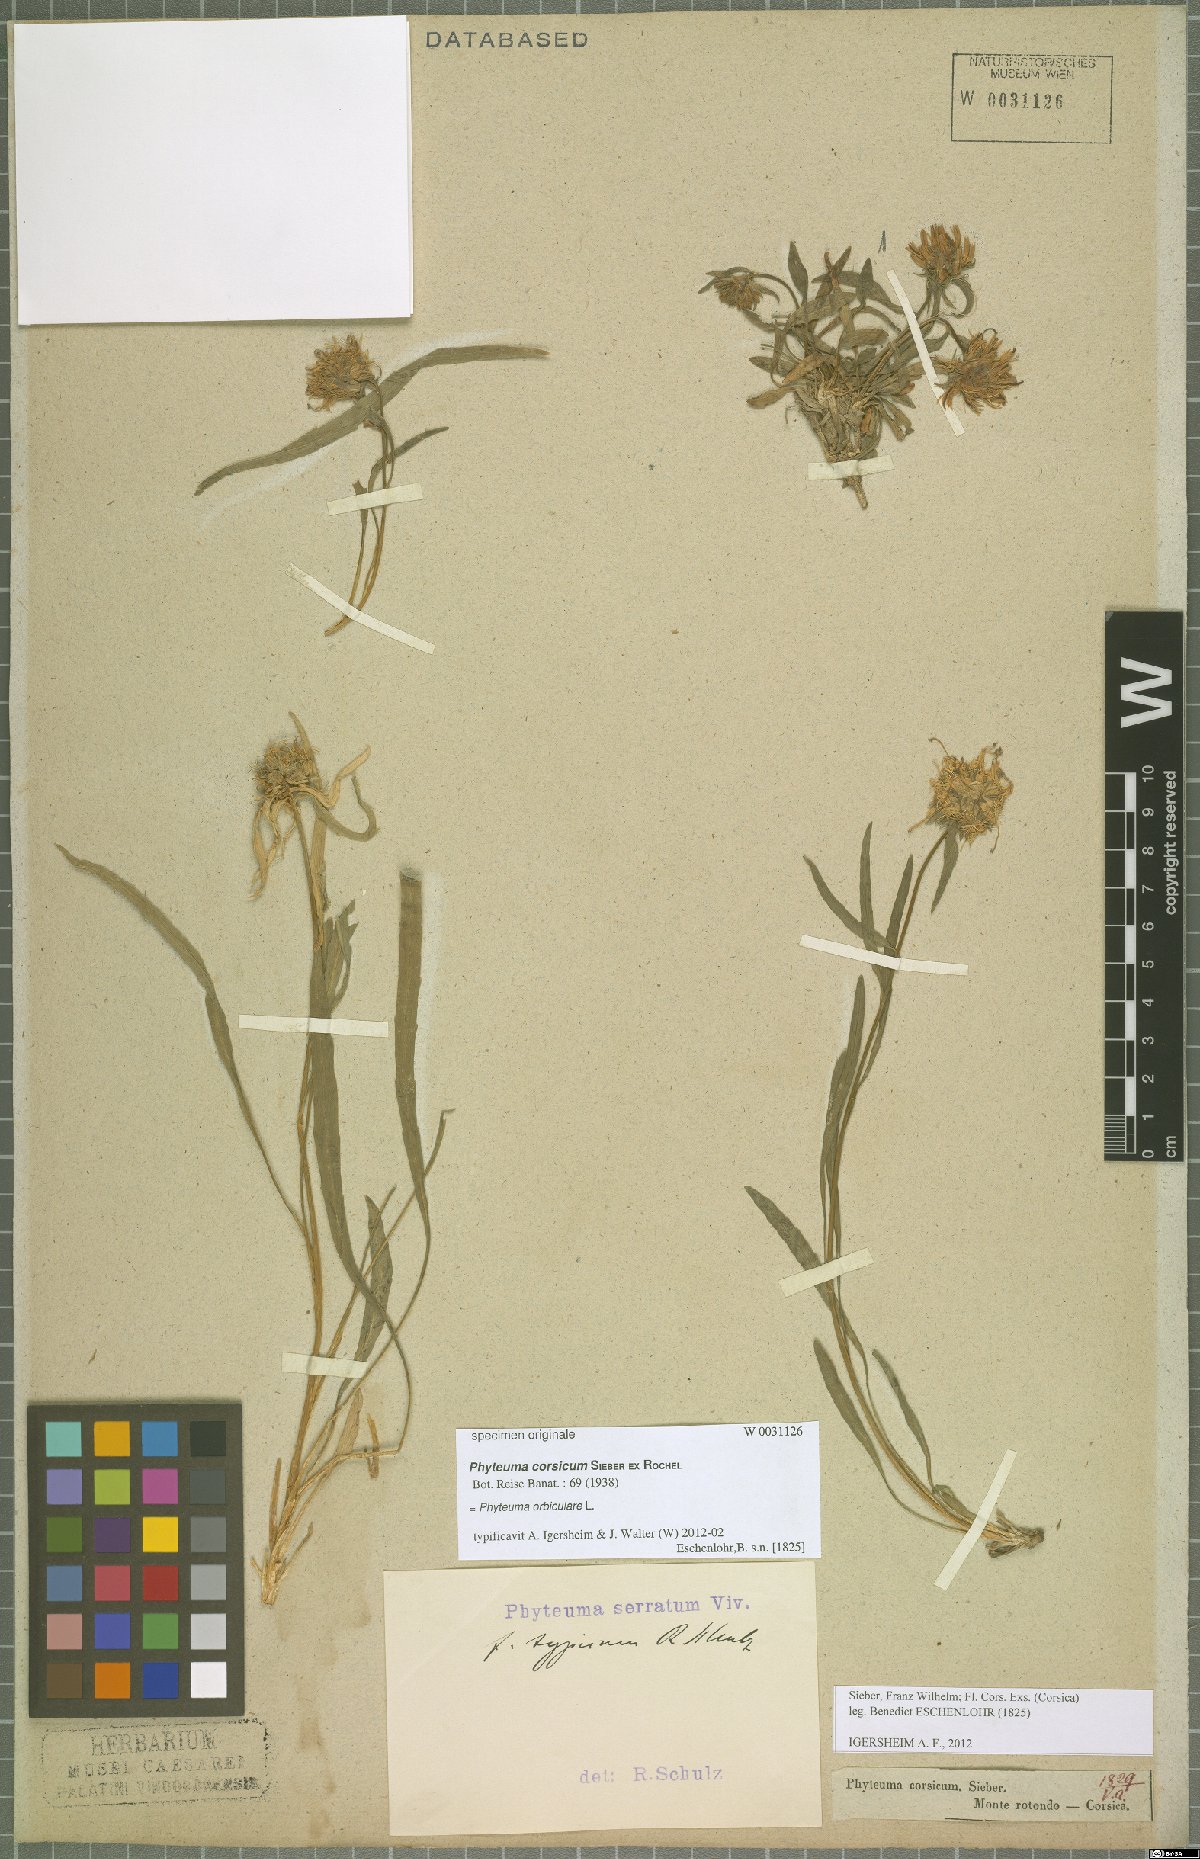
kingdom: Plantae
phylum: Tracheophyta
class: Magnoliopsida
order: Asterales
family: Campanulaceae
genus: Phyteuma
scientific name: Phyteuma orbiculare
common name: Round-headed rampion
